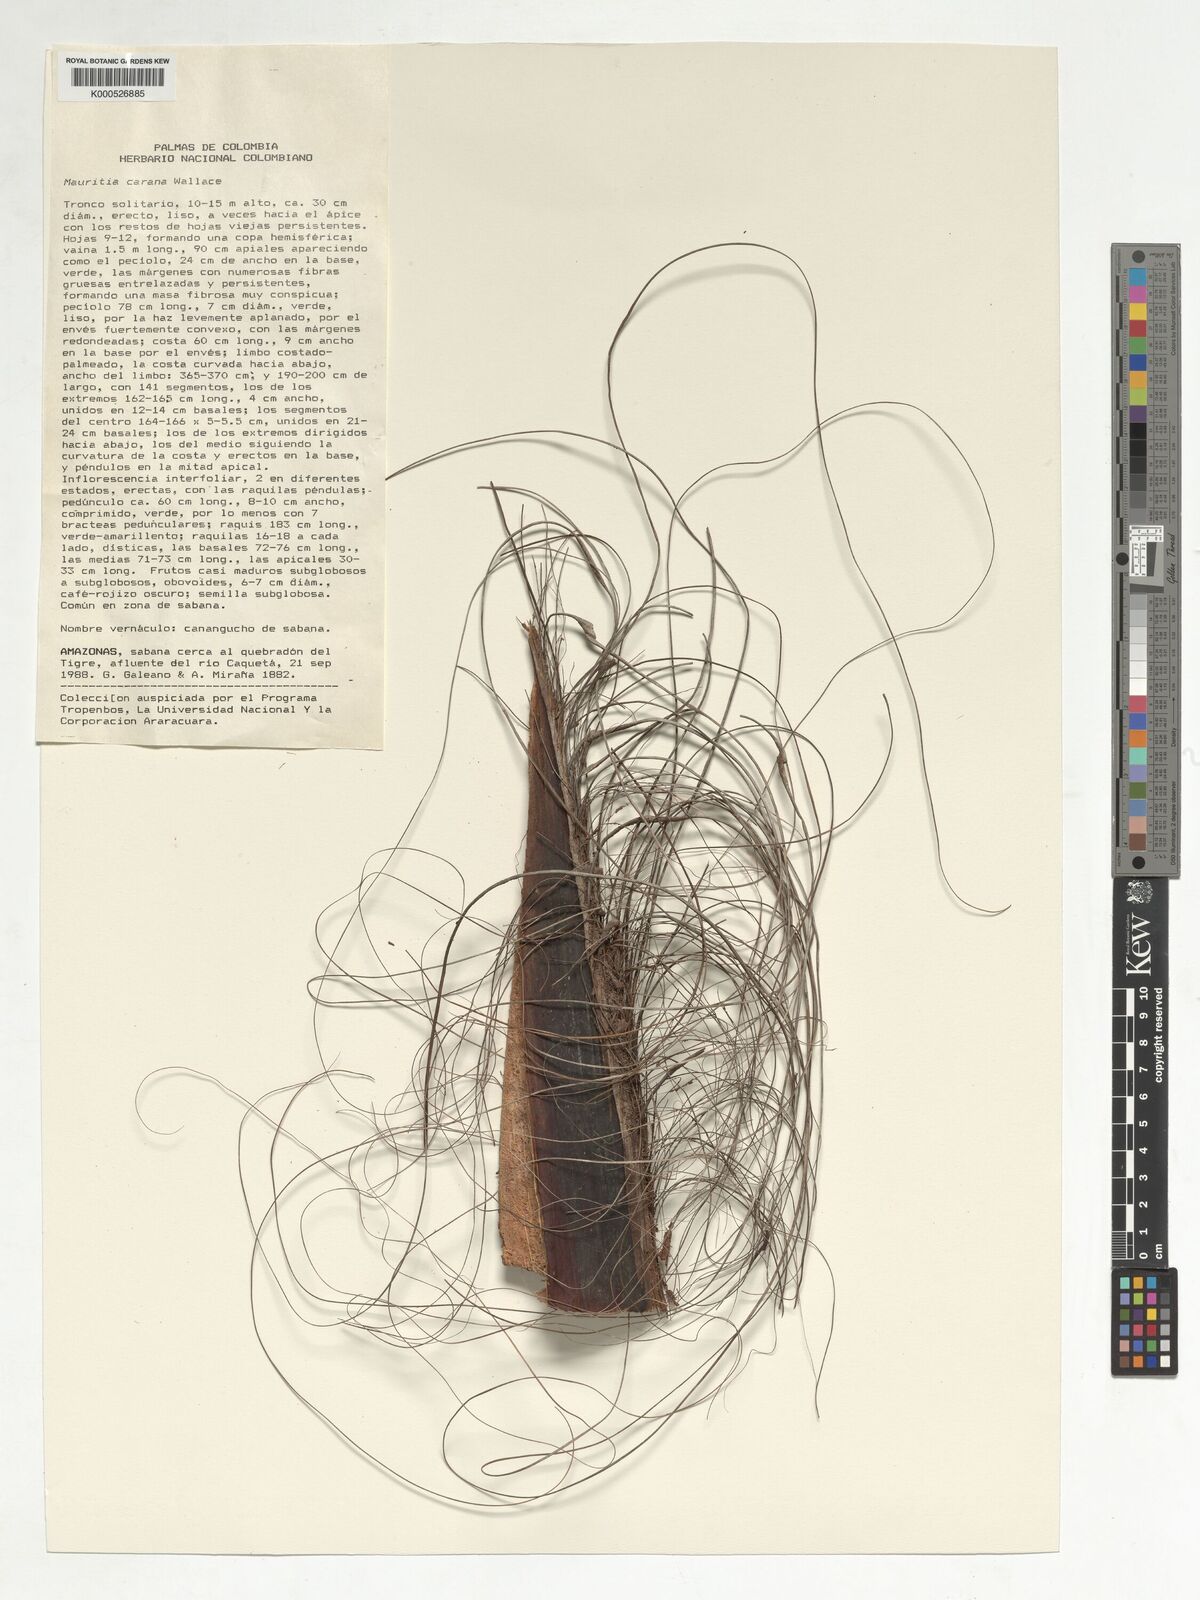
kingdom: Plantae
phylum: Tracheophyta
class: Liliopsida
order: Arecales
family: Arecaceae
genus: Mauritia
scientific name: Mauritia carana
